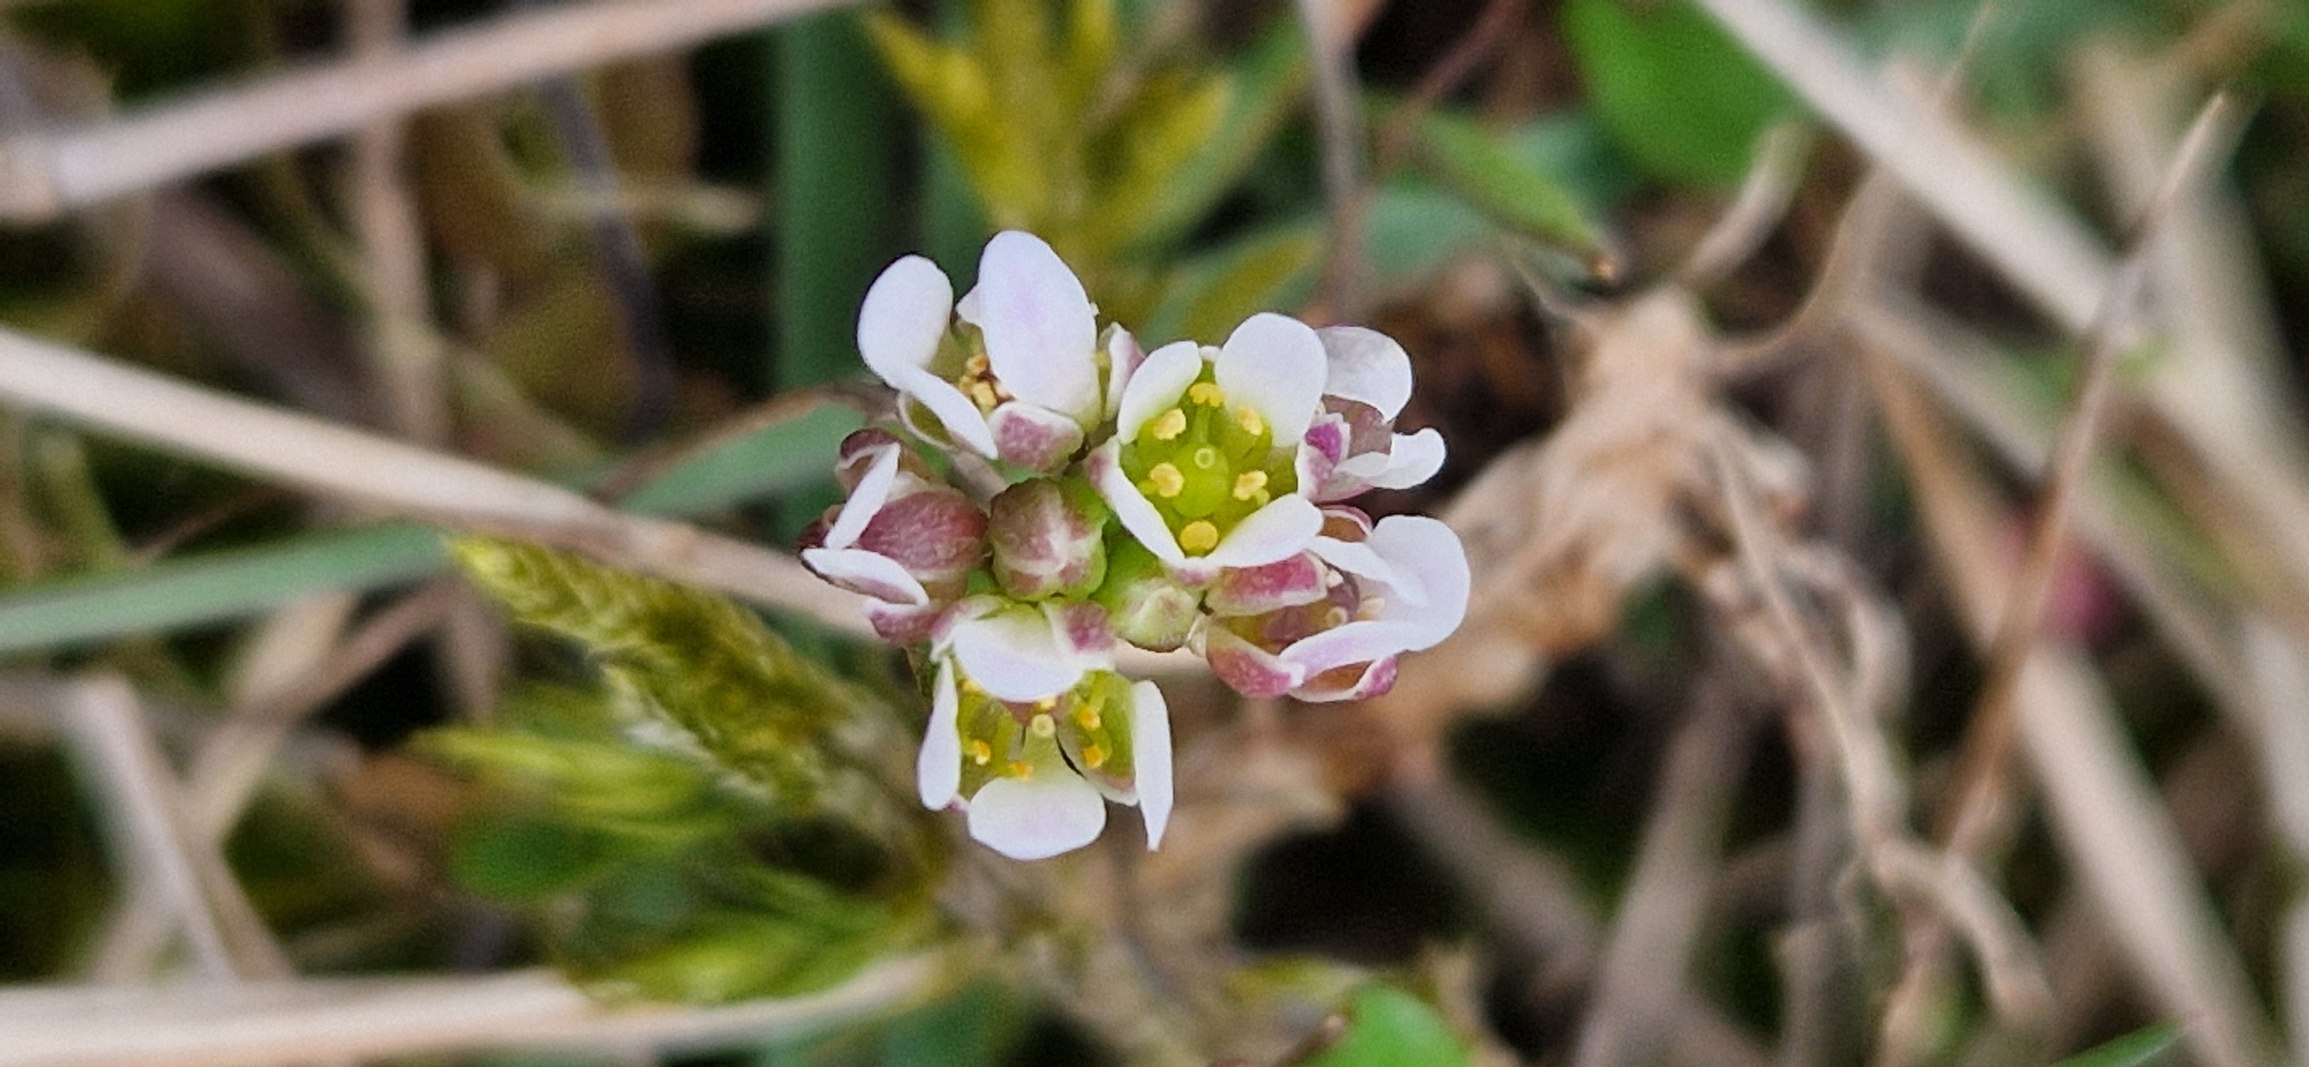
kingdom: Plantae
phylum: Tracheophyta
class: Magnoliopsida
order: Brassicales
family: Brassicaceae
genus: Cochlearia
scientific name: Cochlearia danica
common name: Dansk kokleare
